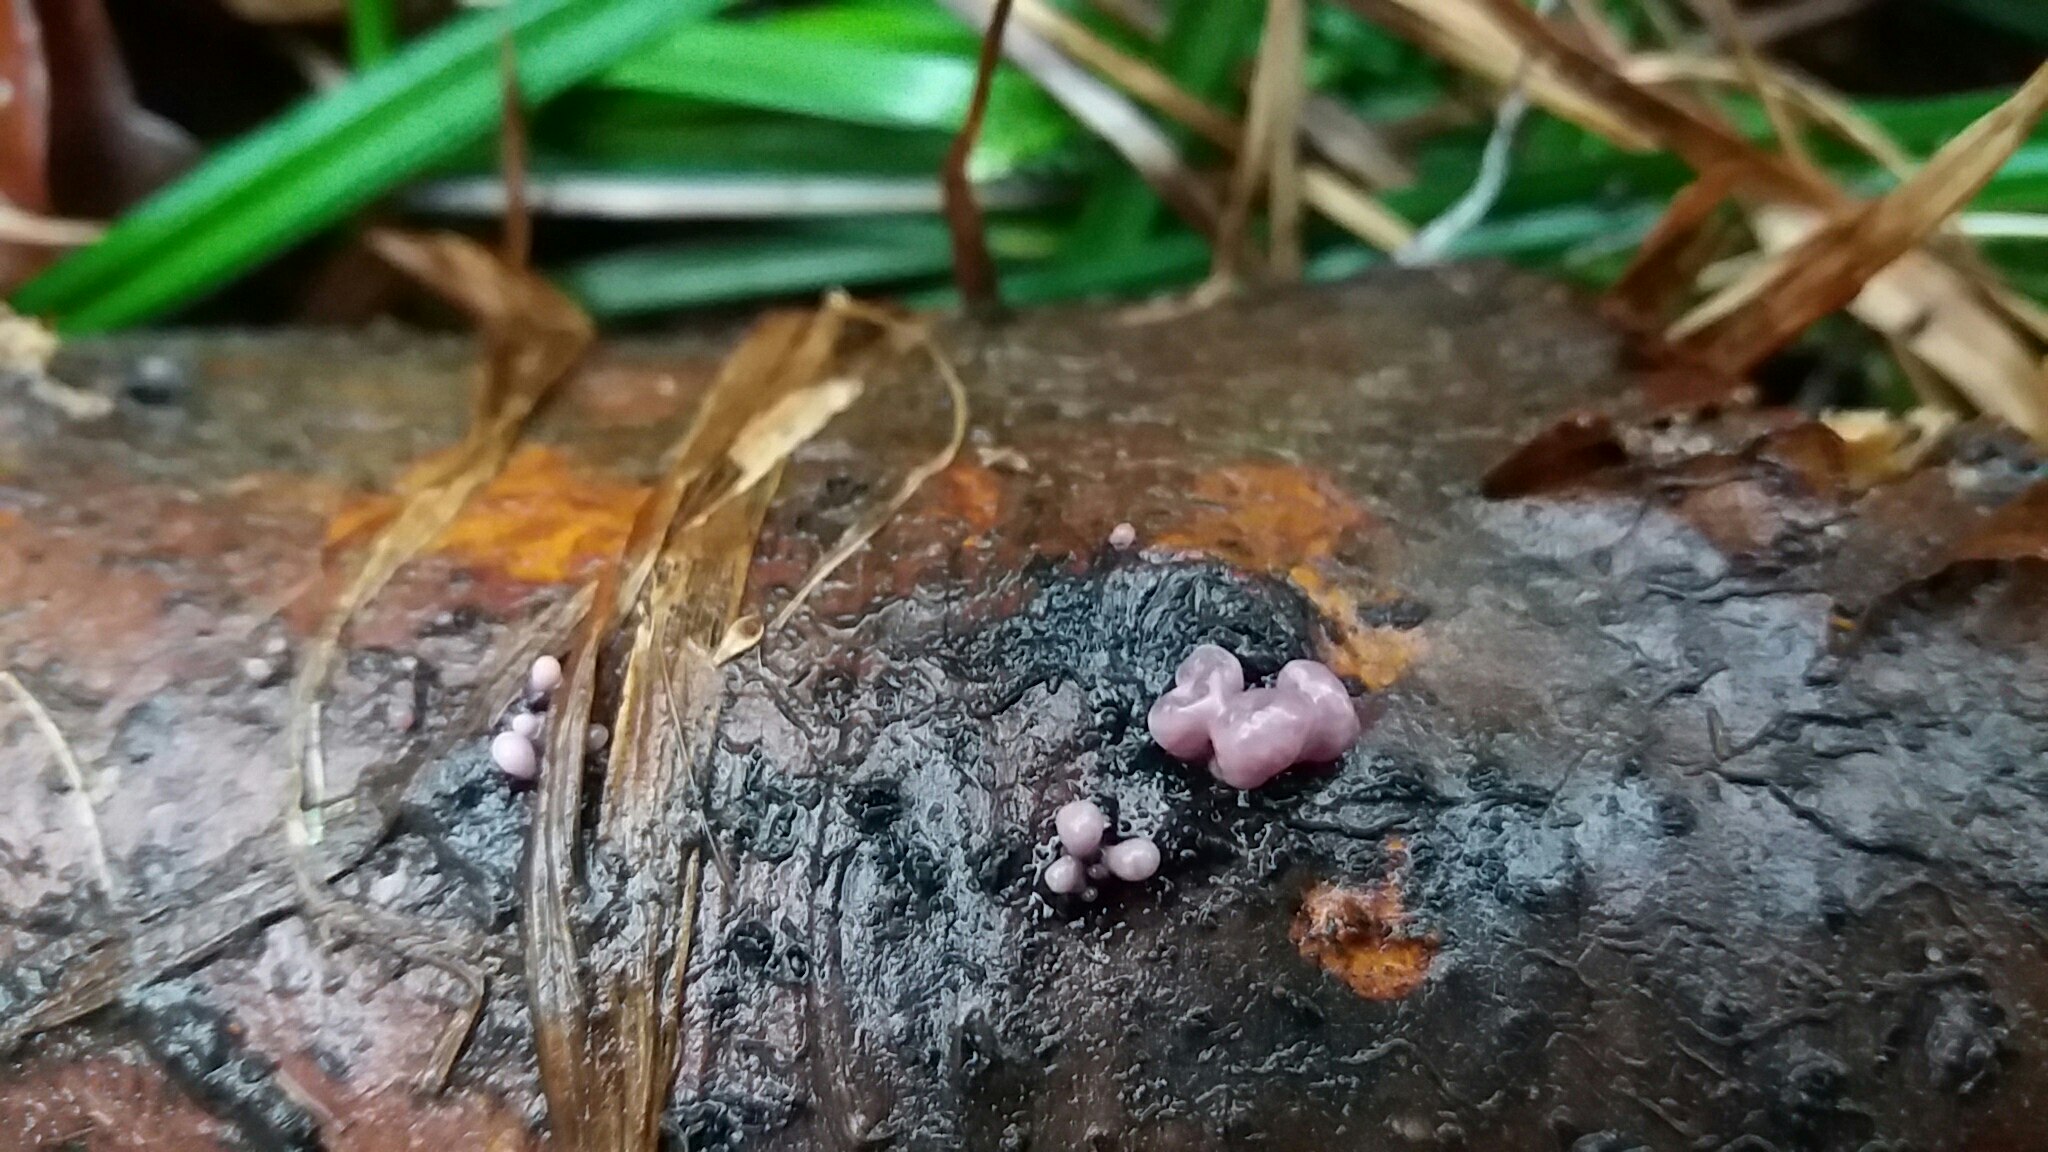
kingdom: Fungi
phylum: Ascomycota
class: Leotiomycetes
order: Helotiales
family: Gelatinodiscaceae
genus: Ascocoryne
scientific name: Ascocoryne sarcoides
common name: rødlilla sejskive
